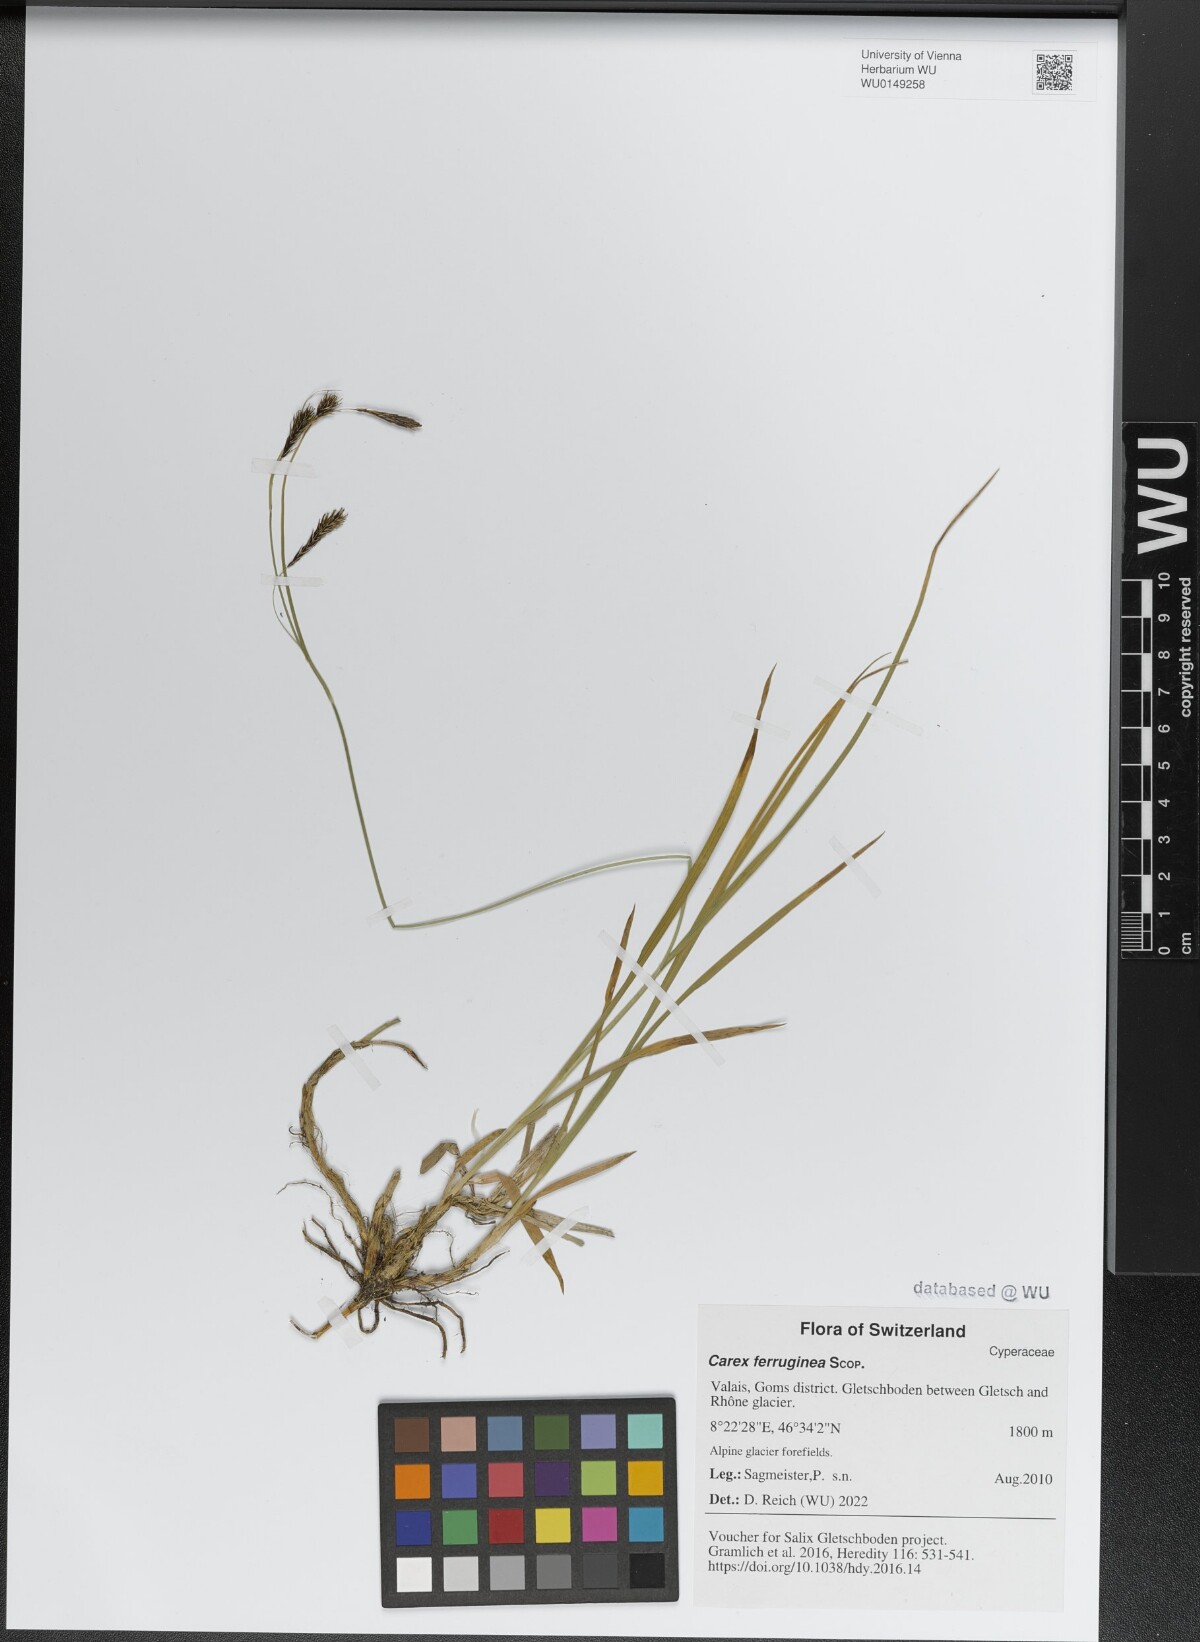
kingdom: Plantae
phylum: Tracheophyta
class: Liliopsida
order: Poales
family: Cyperaceae
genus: Carex
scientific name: Carex ferruginea
